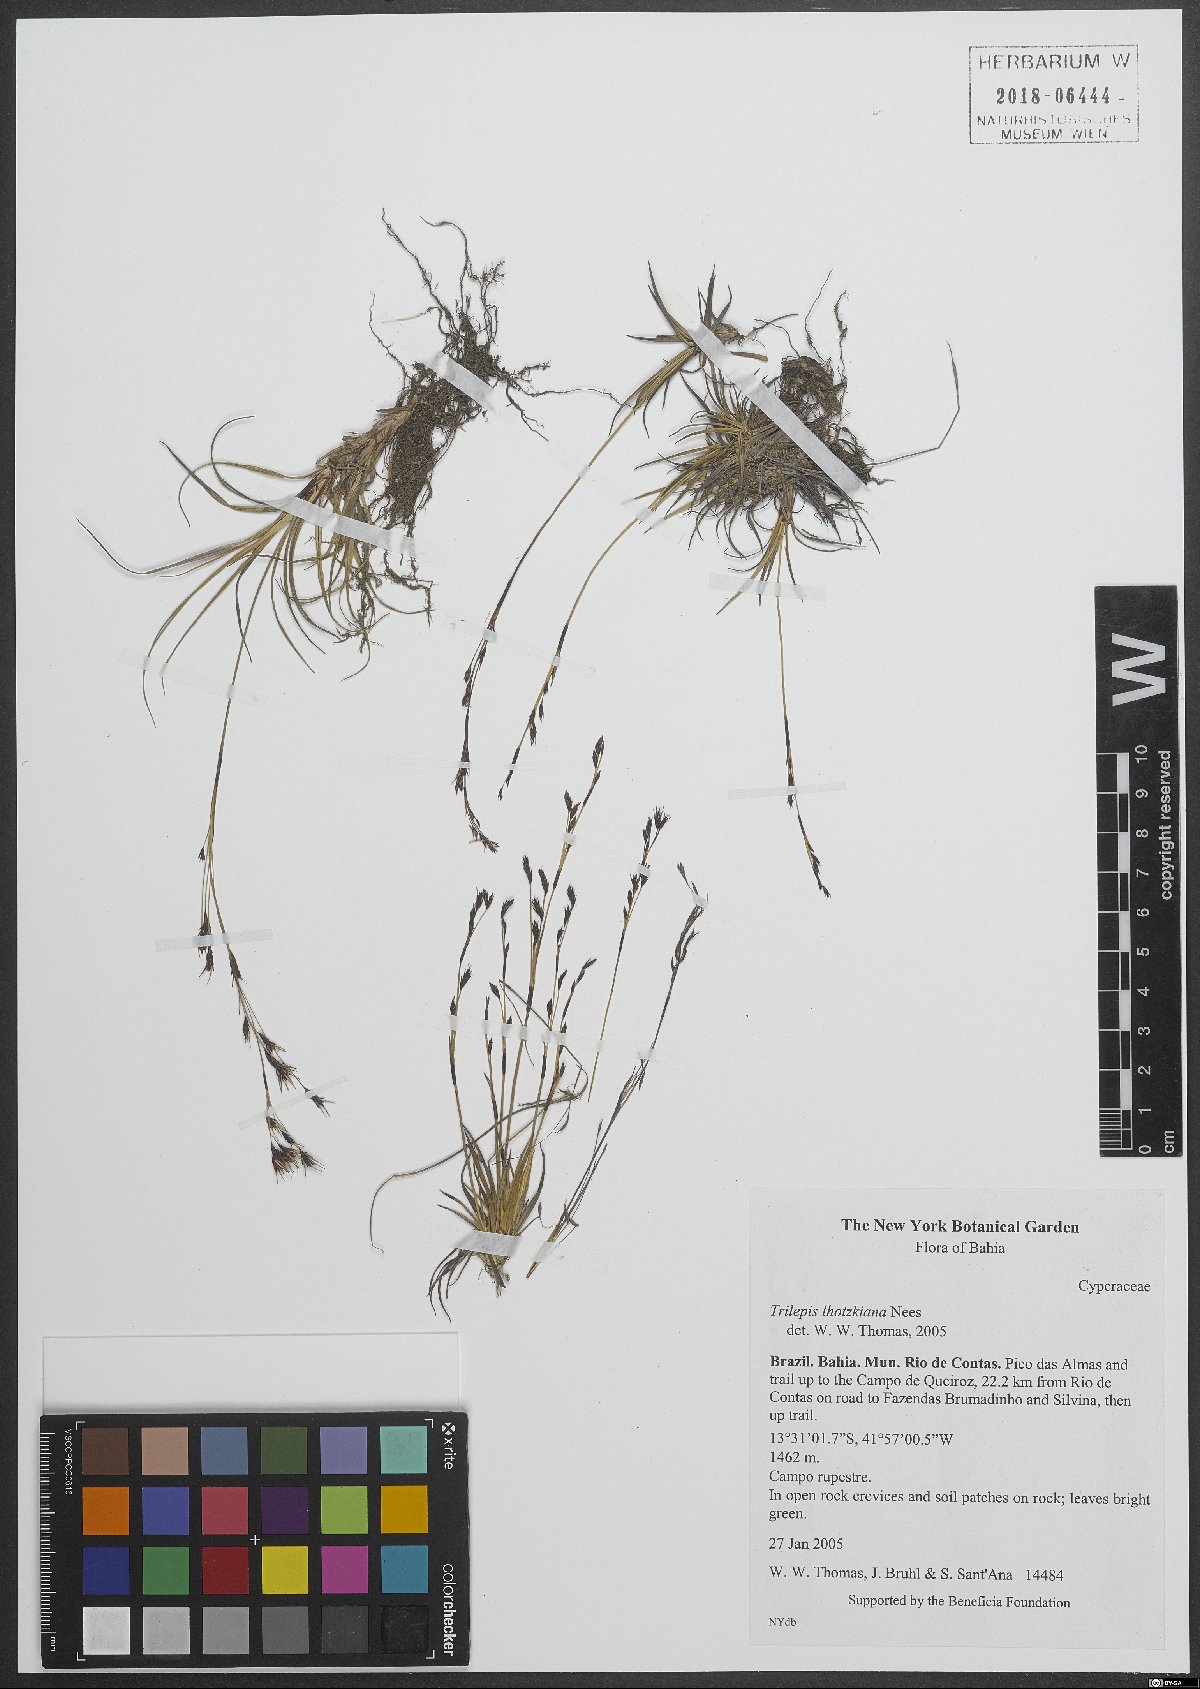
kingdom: Plantae
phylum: Tracheophyta
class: Liliopsida
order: Poales
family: Cyperaceae
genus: Trilepis
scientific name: Trilepis lhotzkiana
